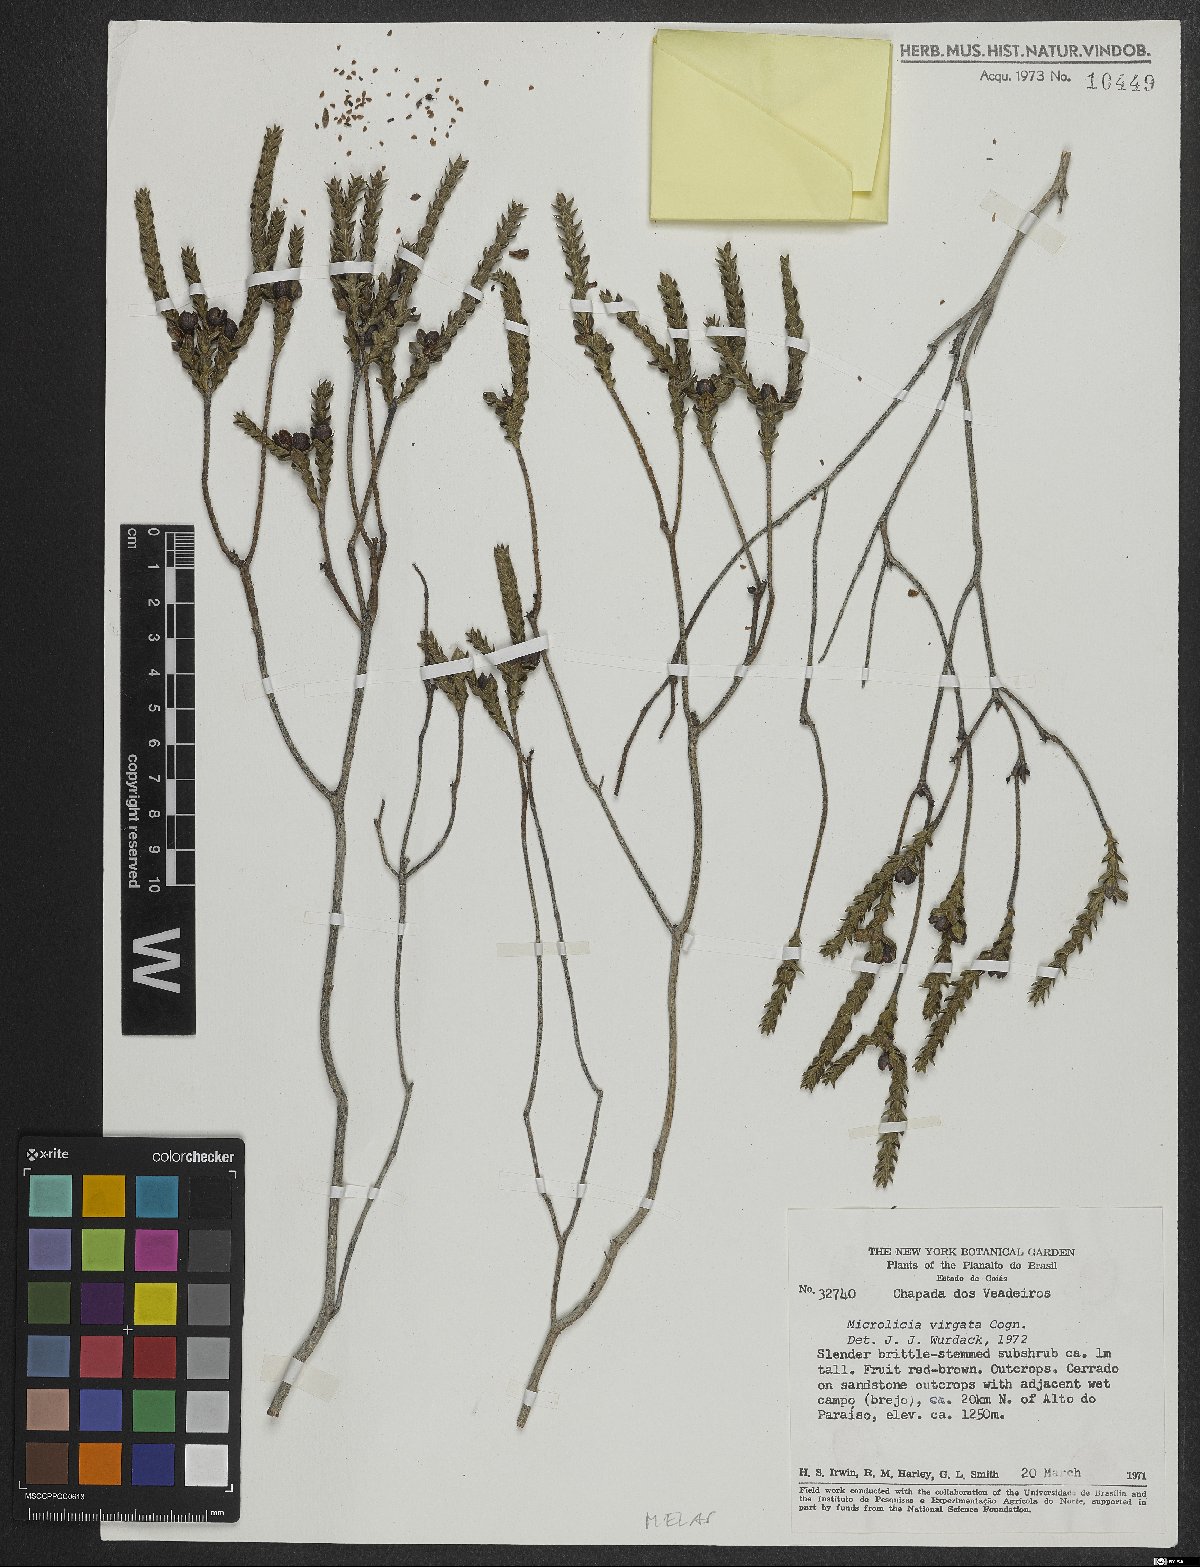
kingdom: Plantae
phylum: Tracheophyta
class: Magnoliopsida
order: Myrtales
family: Melastomataceae
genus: Microlicia
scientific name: Microlicia viminalis
